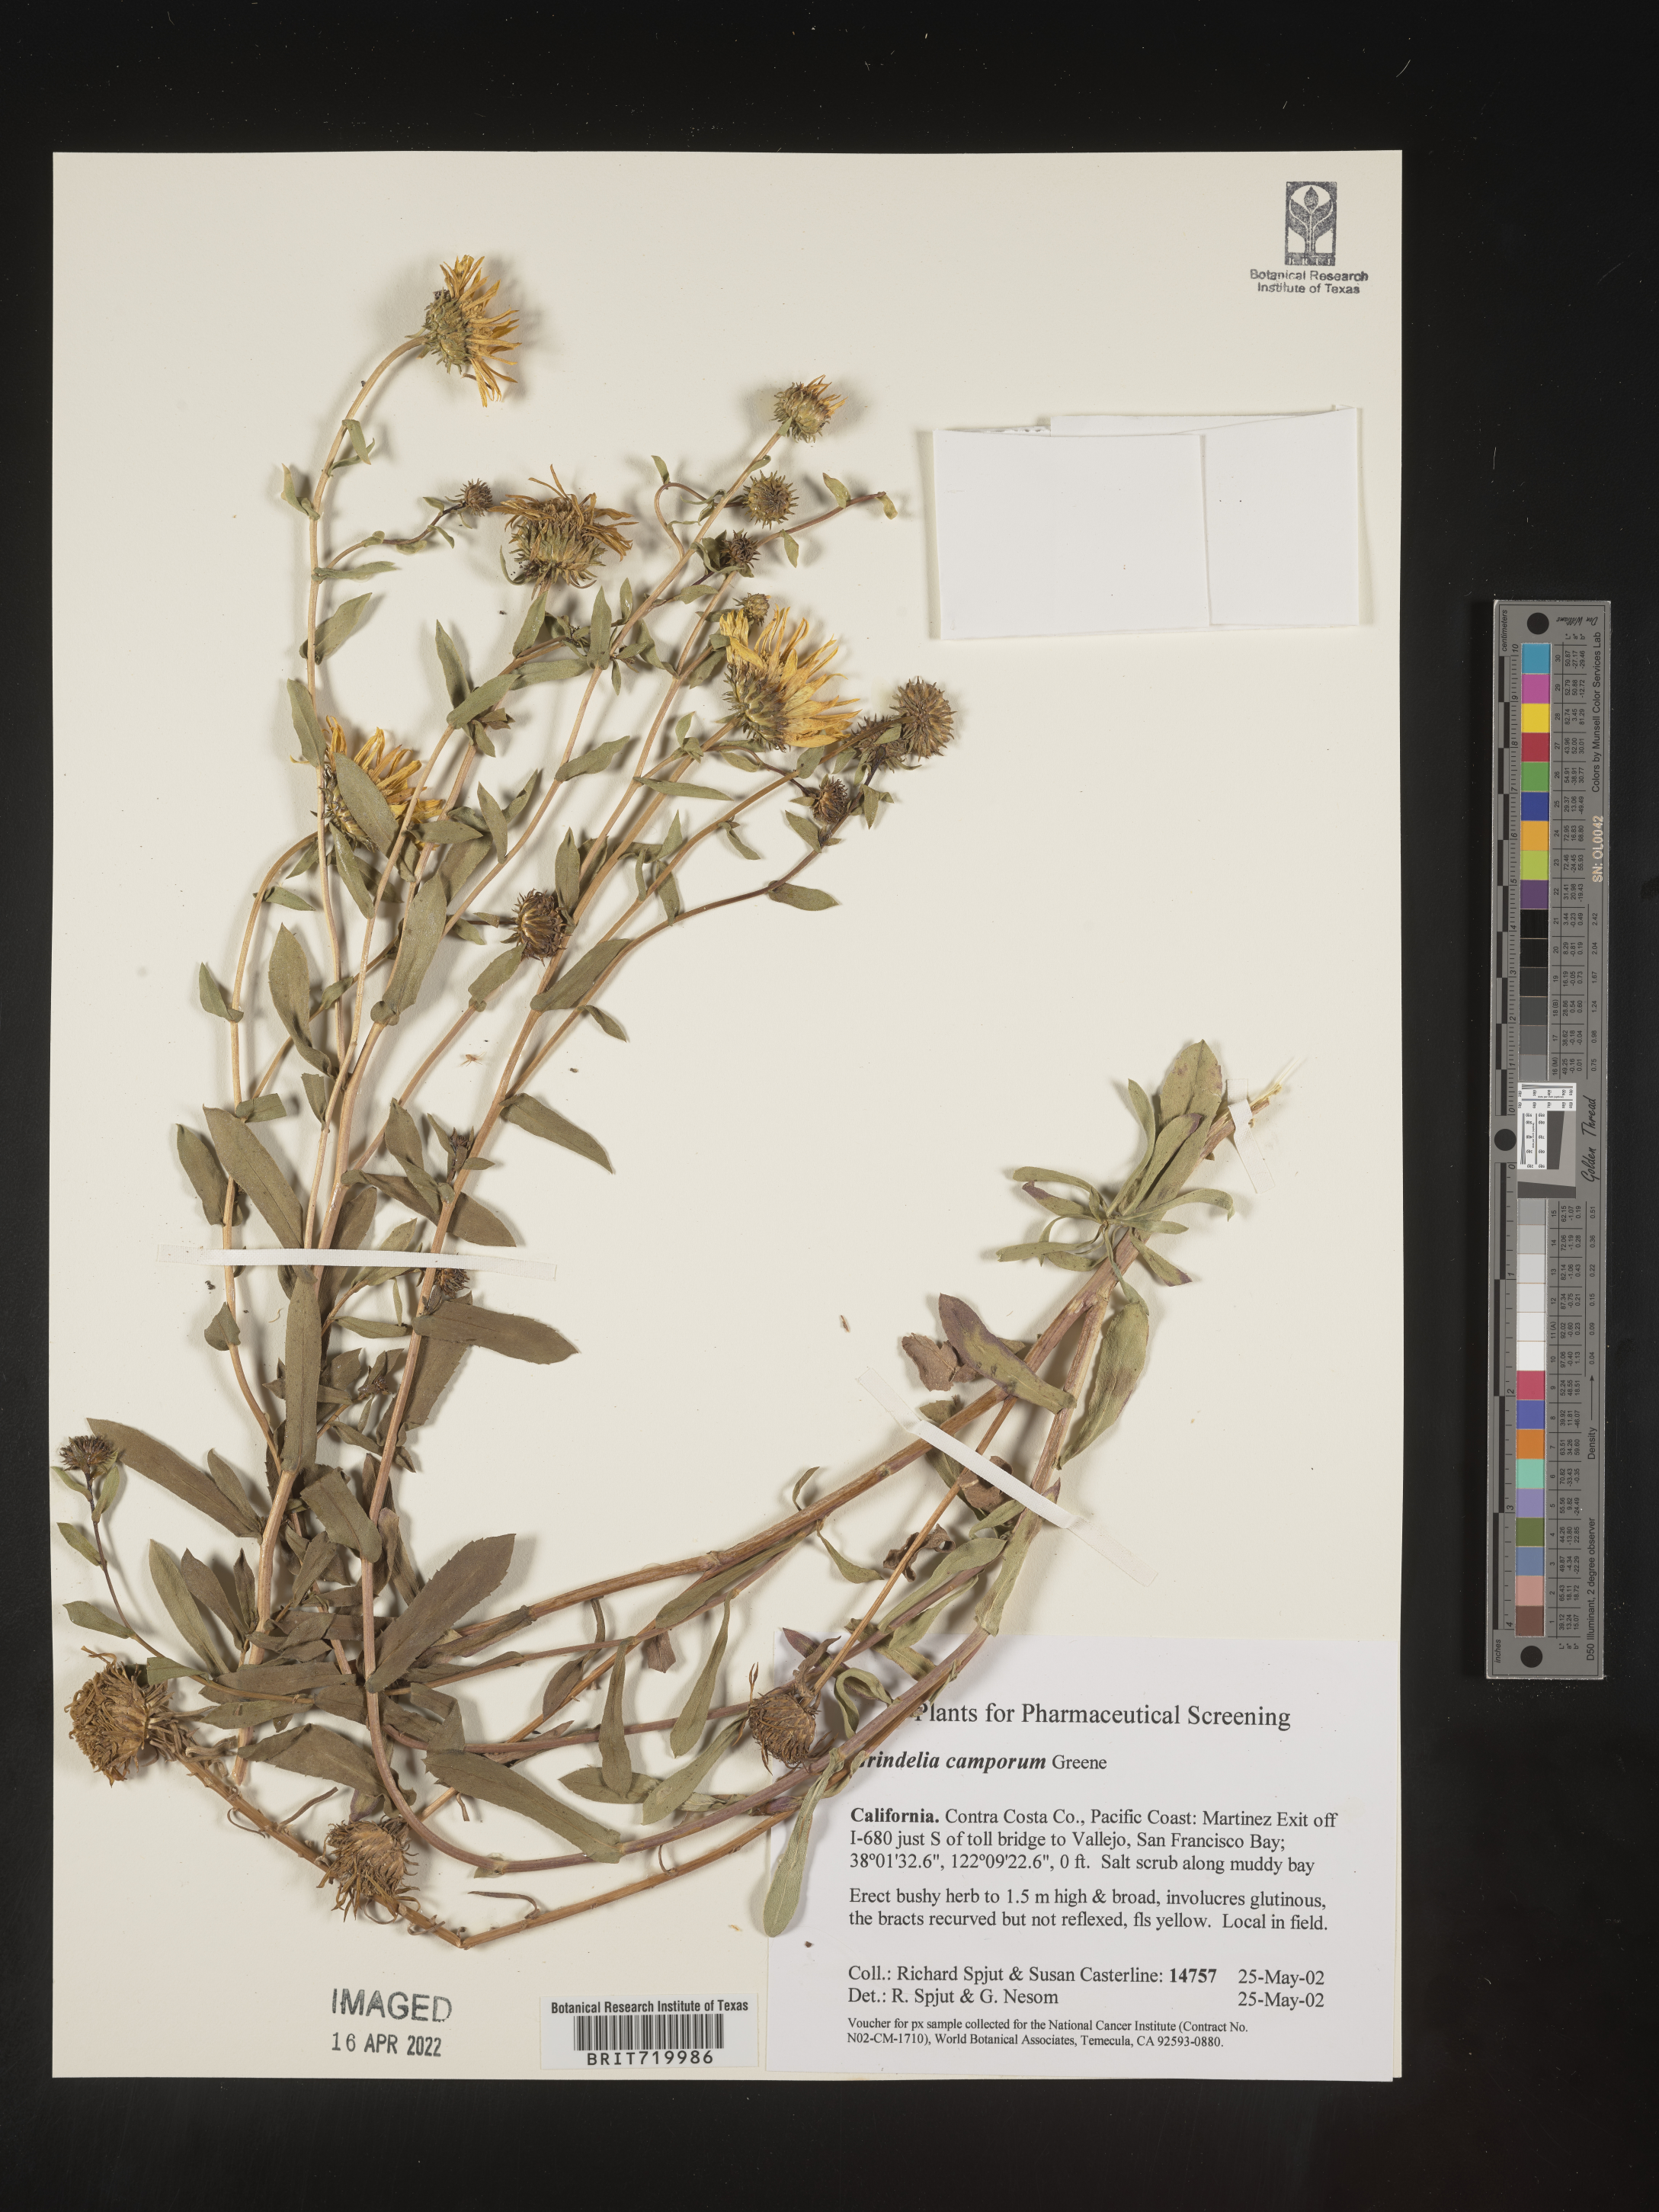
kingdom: Plantae
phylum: Tracheophyta
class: Magnoliopsida
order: Asterales
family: Asteraceae
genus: Grindelia
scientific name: Grindelia hirsutula
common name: Hairy gumweed
